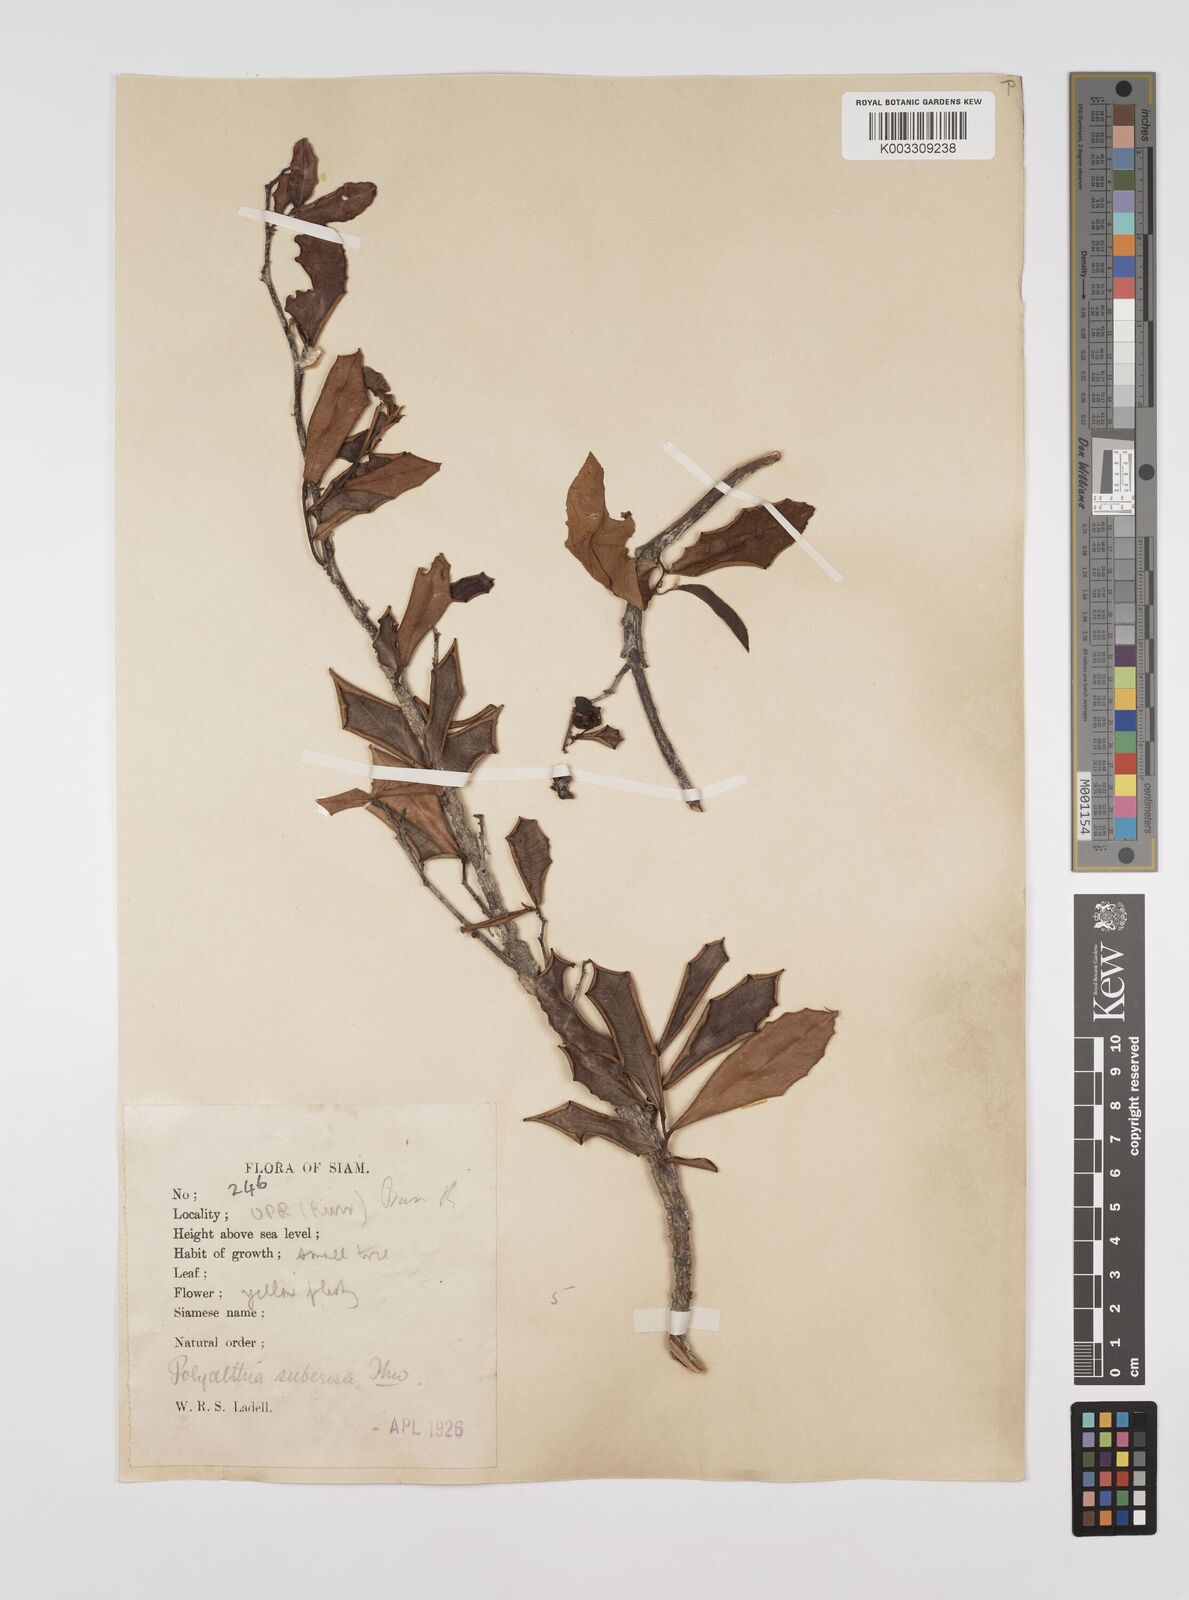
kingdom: Plantae
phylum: Tracheophyta
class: Magnoliopsida
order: Magnoliales
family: Annonaceae
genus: Polyalthia
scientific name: Polyalthia suberosa
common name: Polyalthia plant
